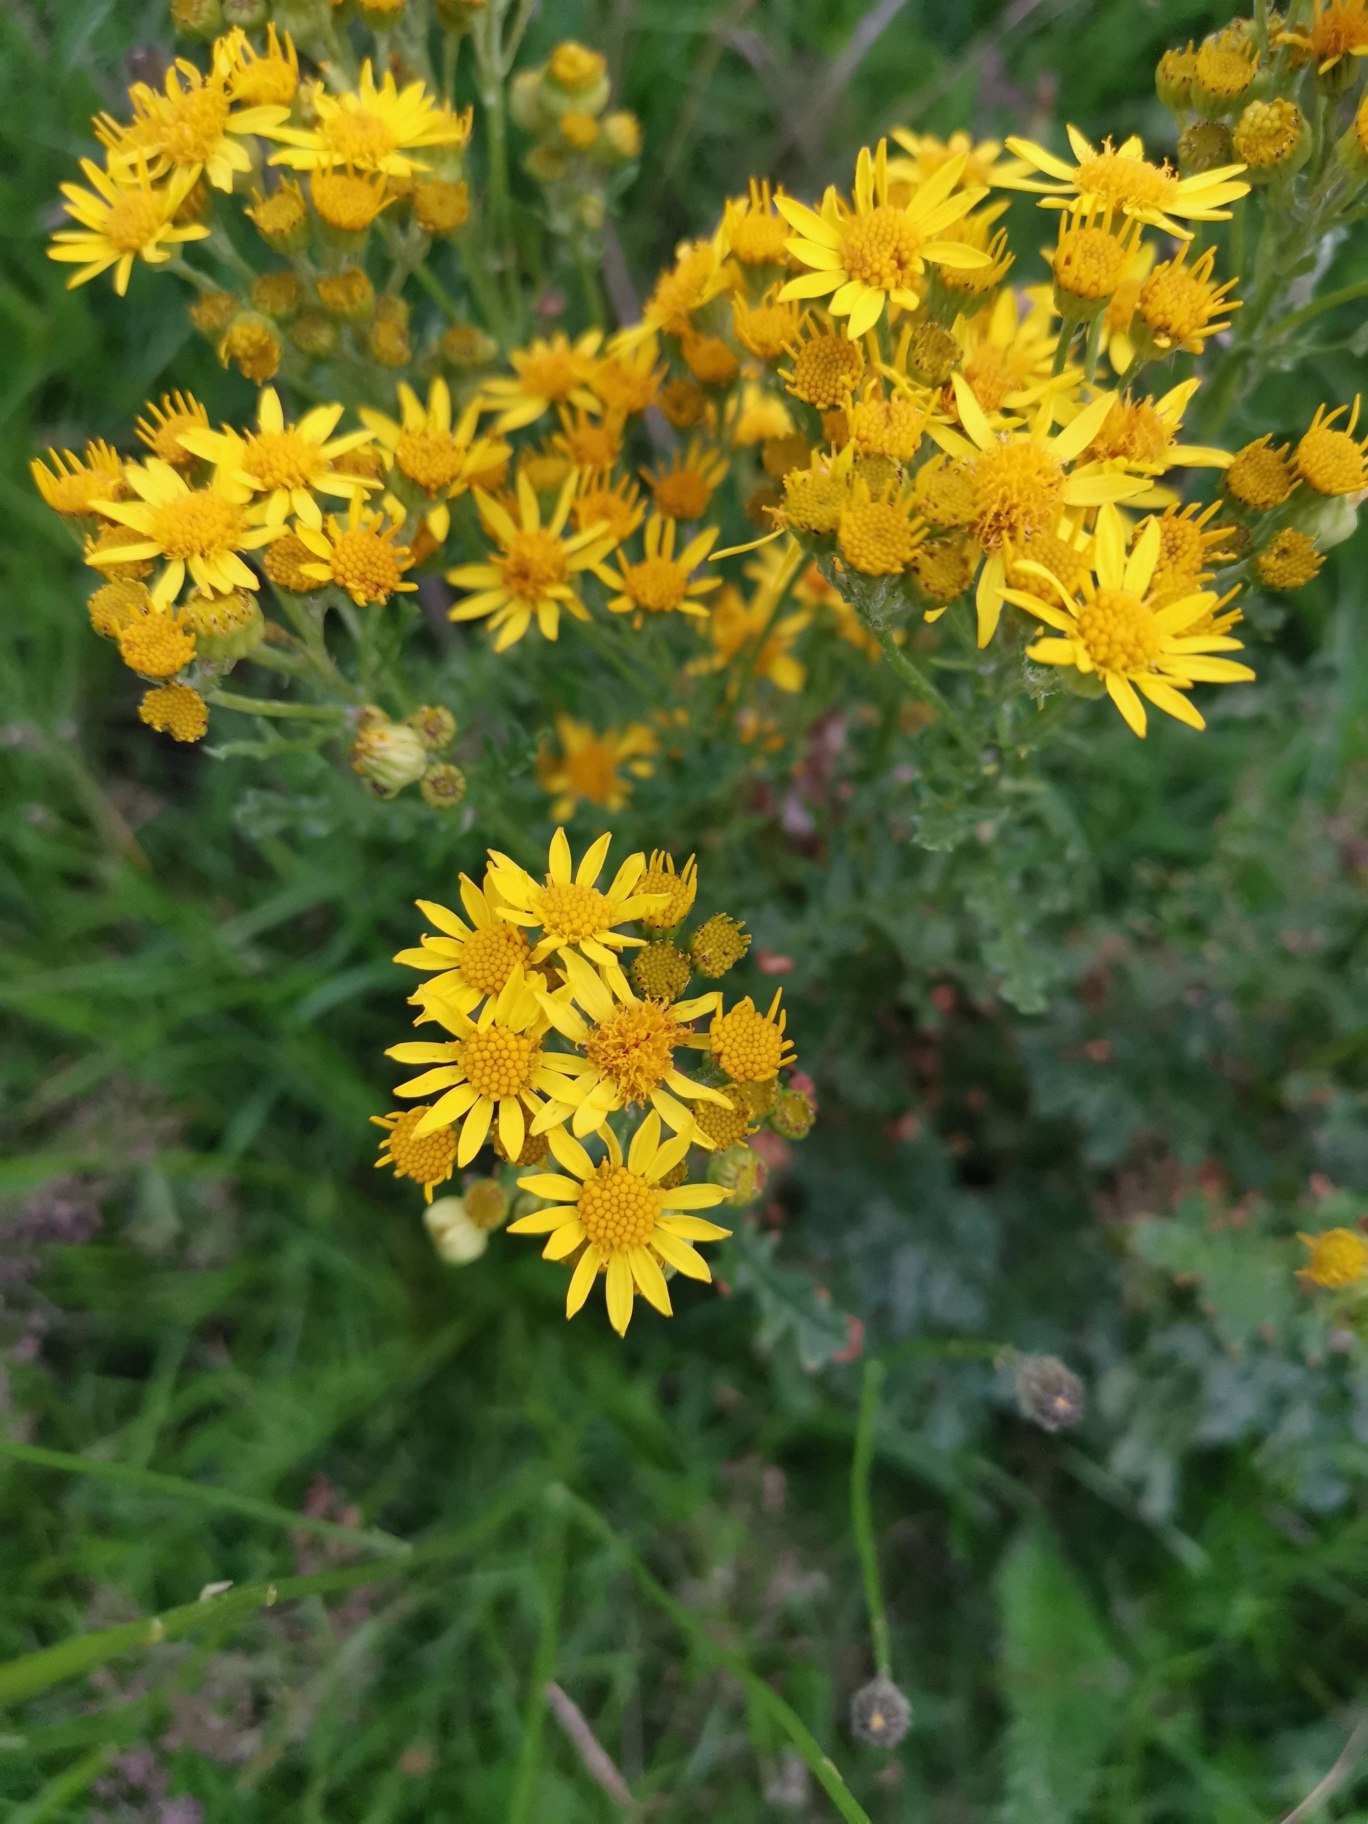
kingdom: Plantae
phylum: Tracheophyta
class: Magnoliopsida
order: Asterales
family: Asteraceae
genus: Jacobaea
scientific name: Jacobaea vulgaris
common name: Eng-brandbæger
